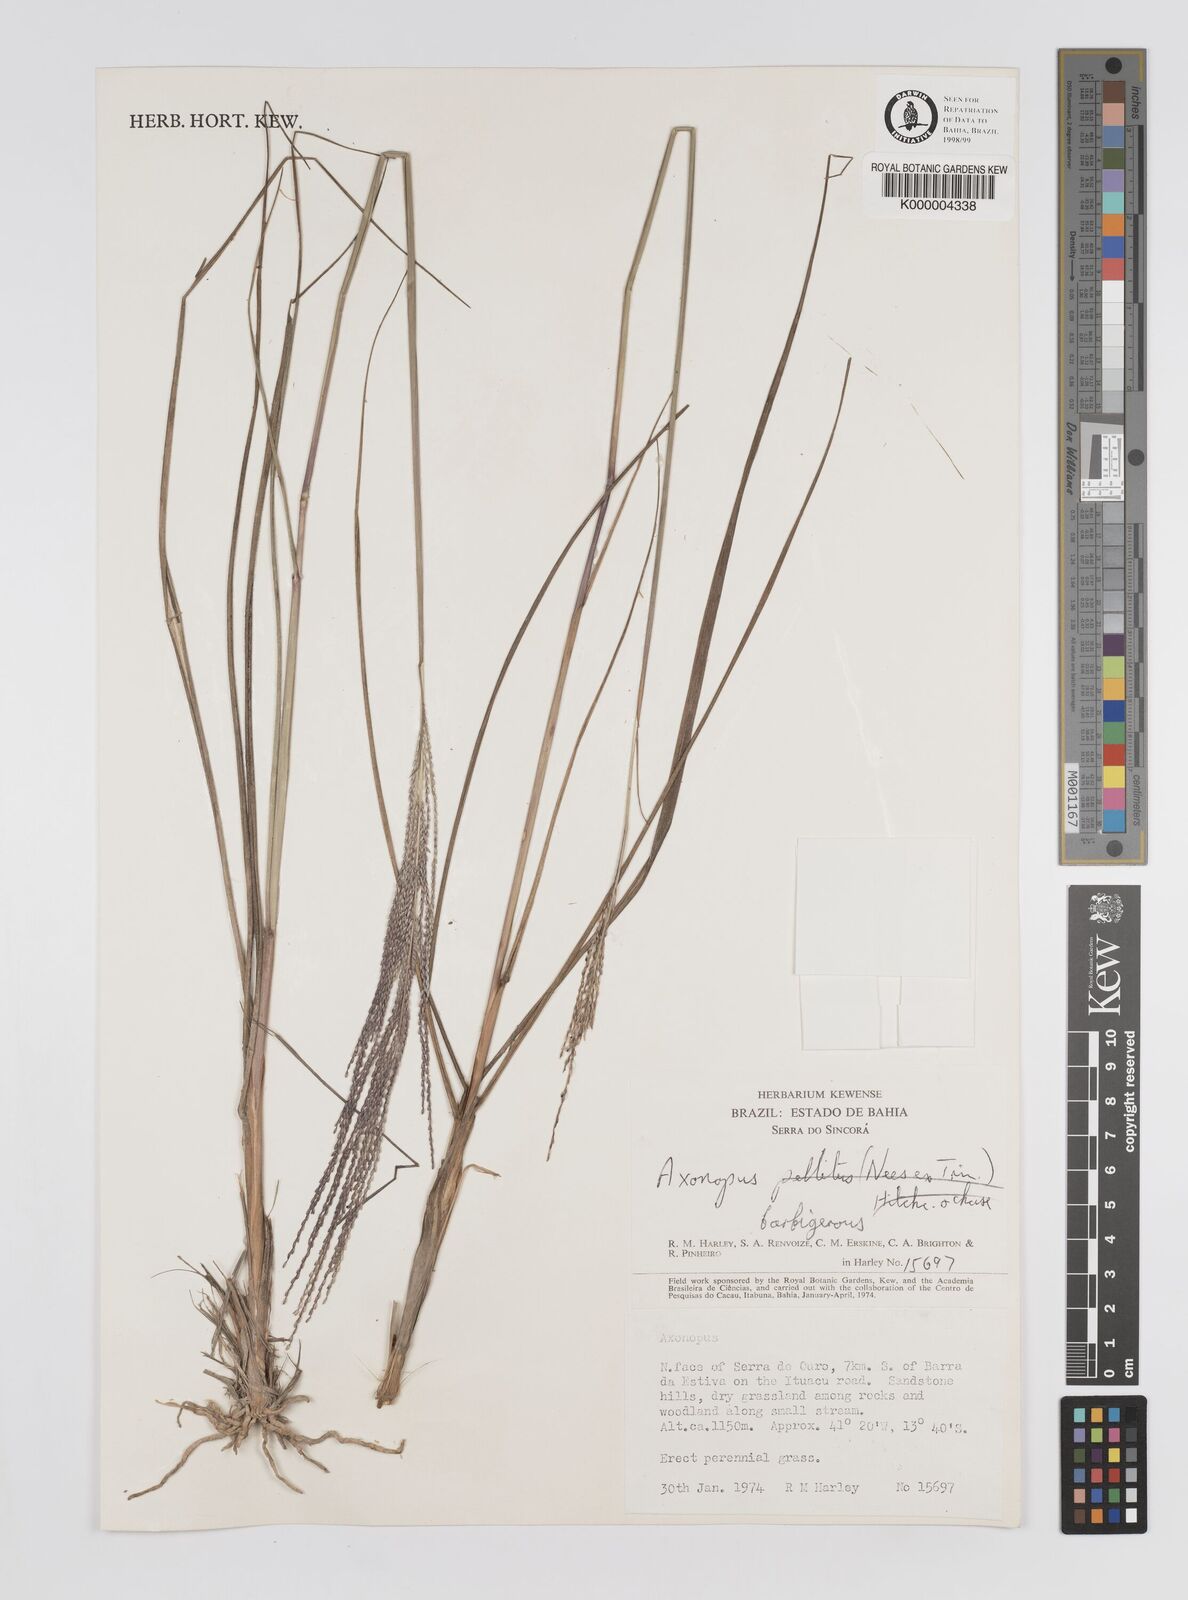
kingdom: Plantae
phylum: Tracheophyta
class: Liliopsida
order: Poales
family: Poaceae
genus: Axonopus
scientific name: Axonopus
